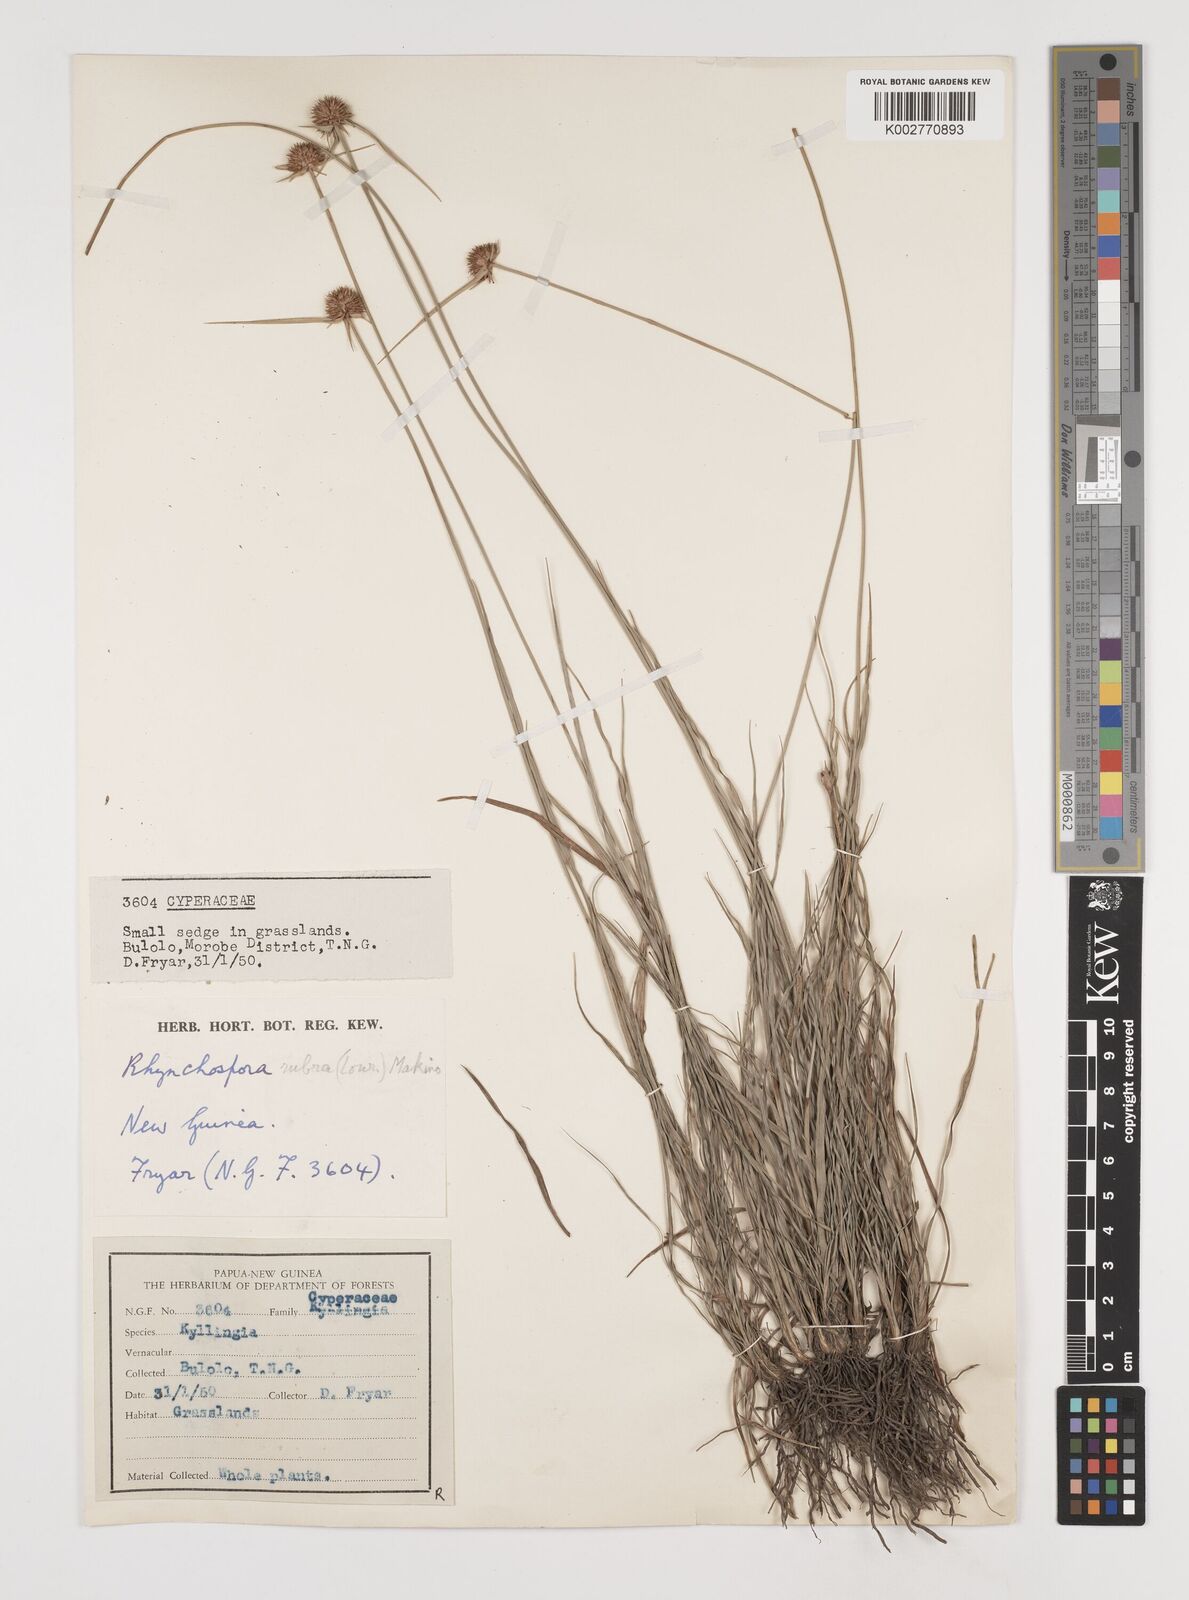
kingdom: Plantae
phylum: Tracheophyta
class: Liliopsida
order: Poales
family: Cyperaceae
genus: Rhynchospora
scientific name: Rhynchospora rubra
